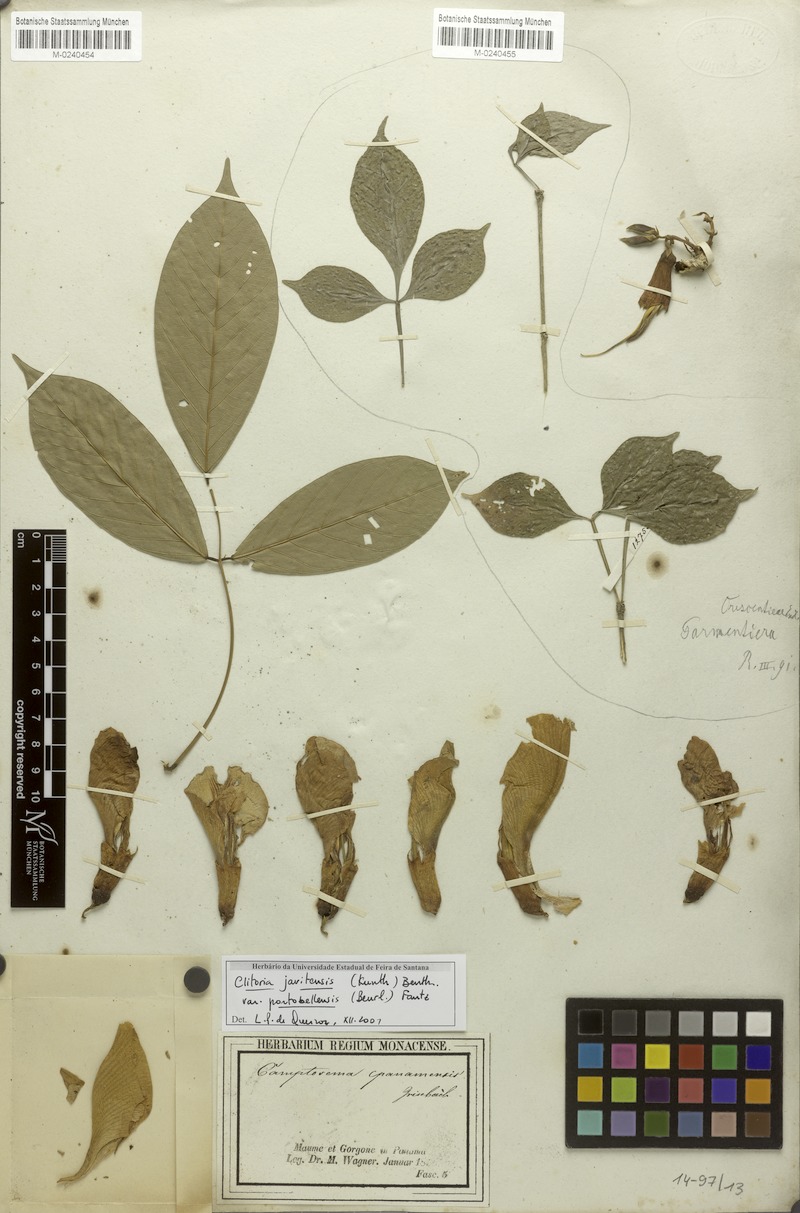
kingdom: Plantae
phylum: Tracheophyta
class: Magnoliopsida
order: Lamiales
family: Bignoniaceae
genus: Parmentiera
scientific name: Parmentiera
